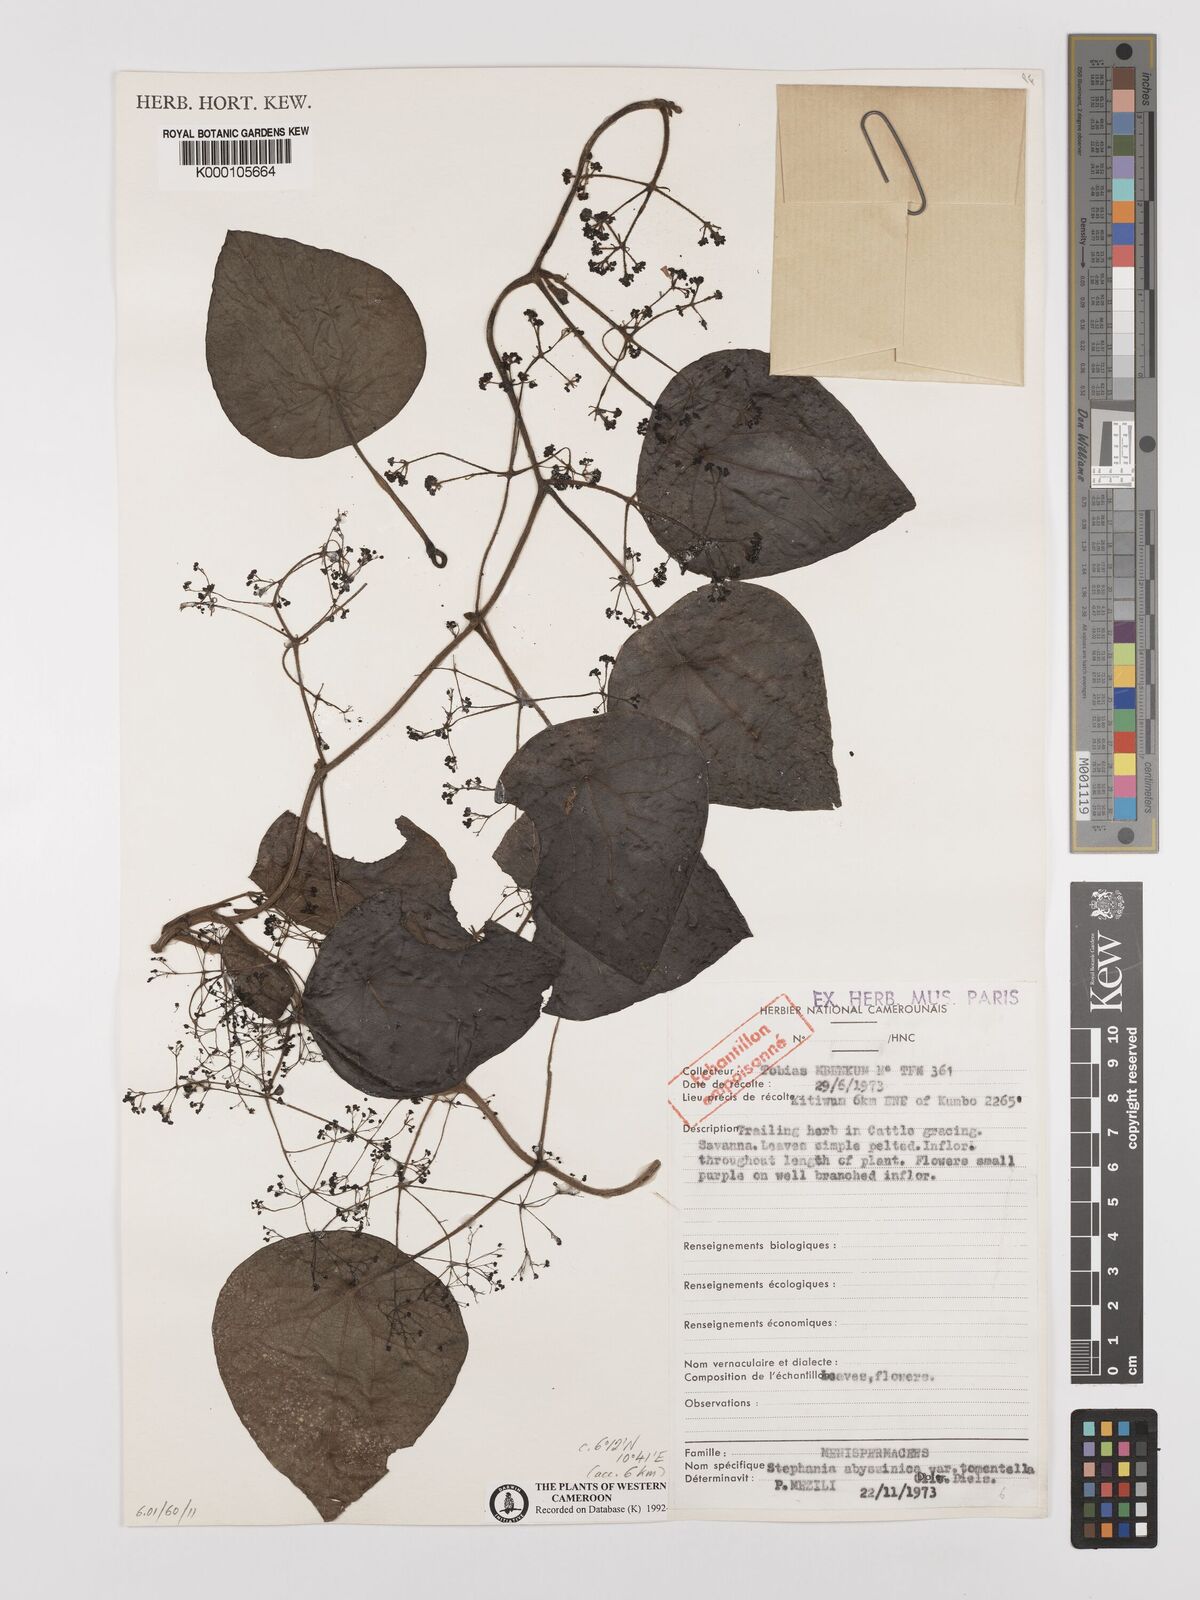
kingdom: Plantae
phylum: Tracheophyta
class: Magnoliopsida
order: Ranunculales
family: Menispermaceae
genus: Stephania
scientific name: Stephania
